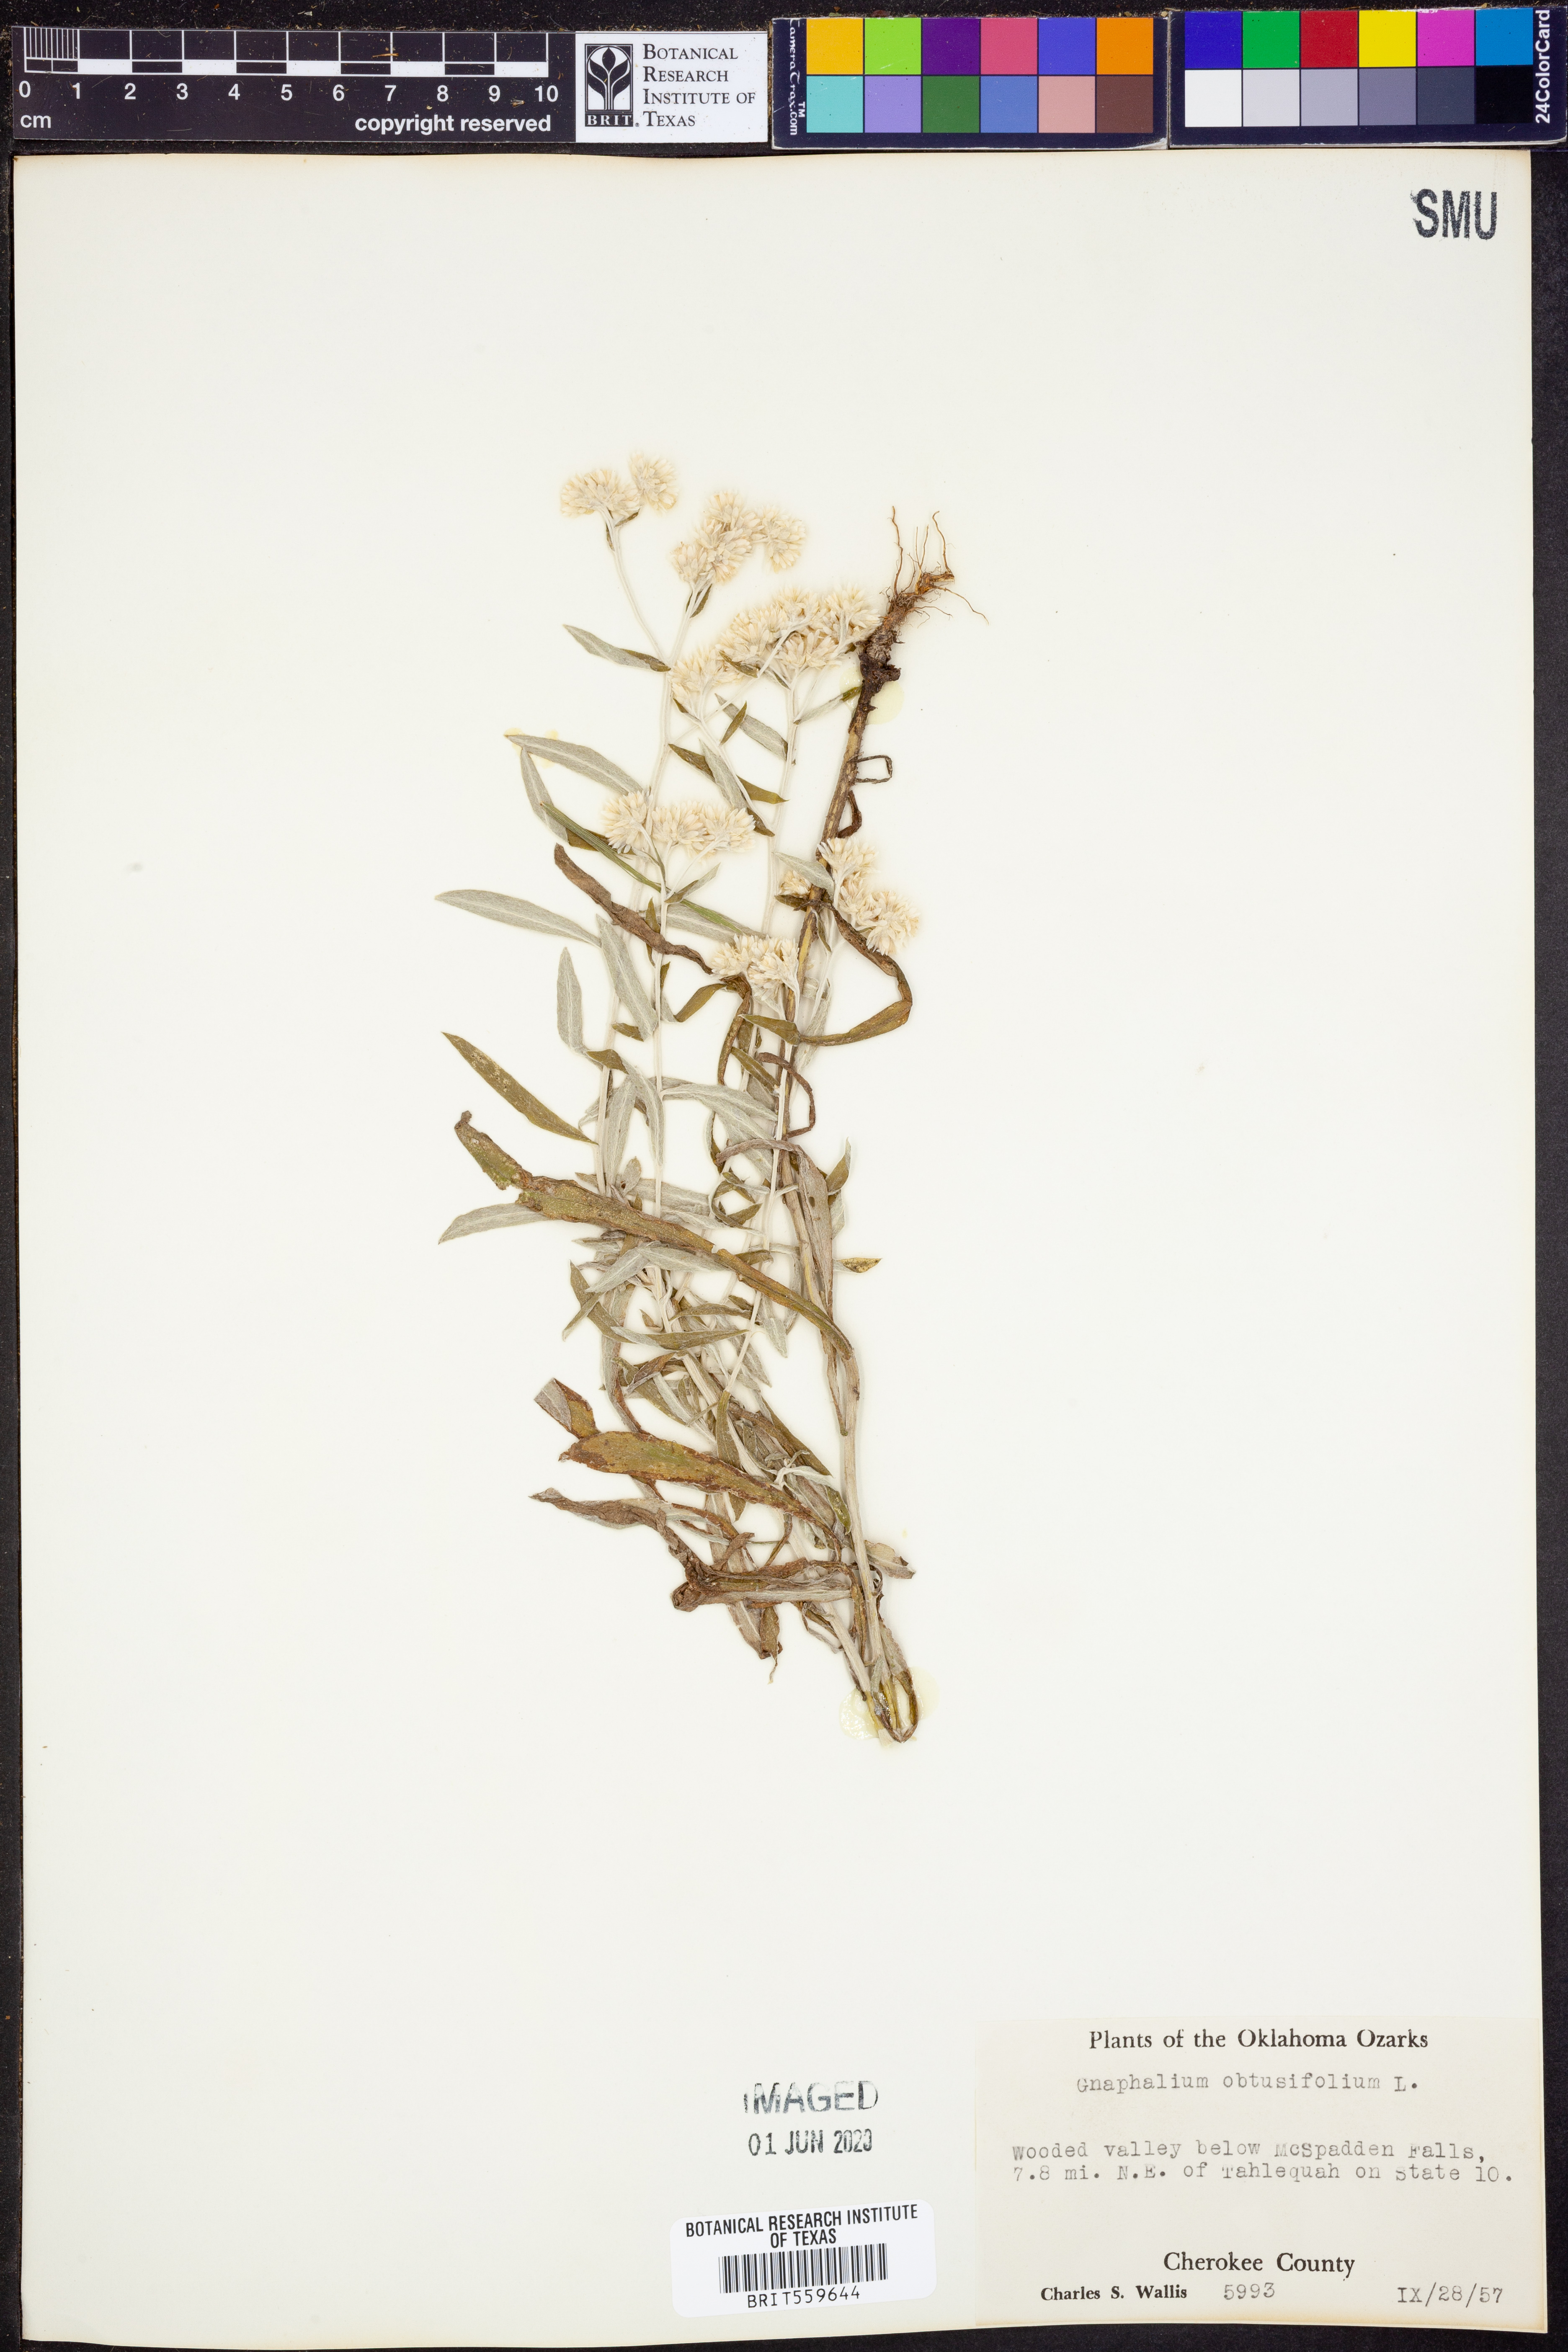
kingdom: Plantae
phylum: Tracheophyta
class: Magnoliopsida
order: Asterales
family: Asteraceae
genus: Pseudognaphalium
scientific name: Pseudognaphalium obtusifolium
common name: Eastern rabbit-tobacco
